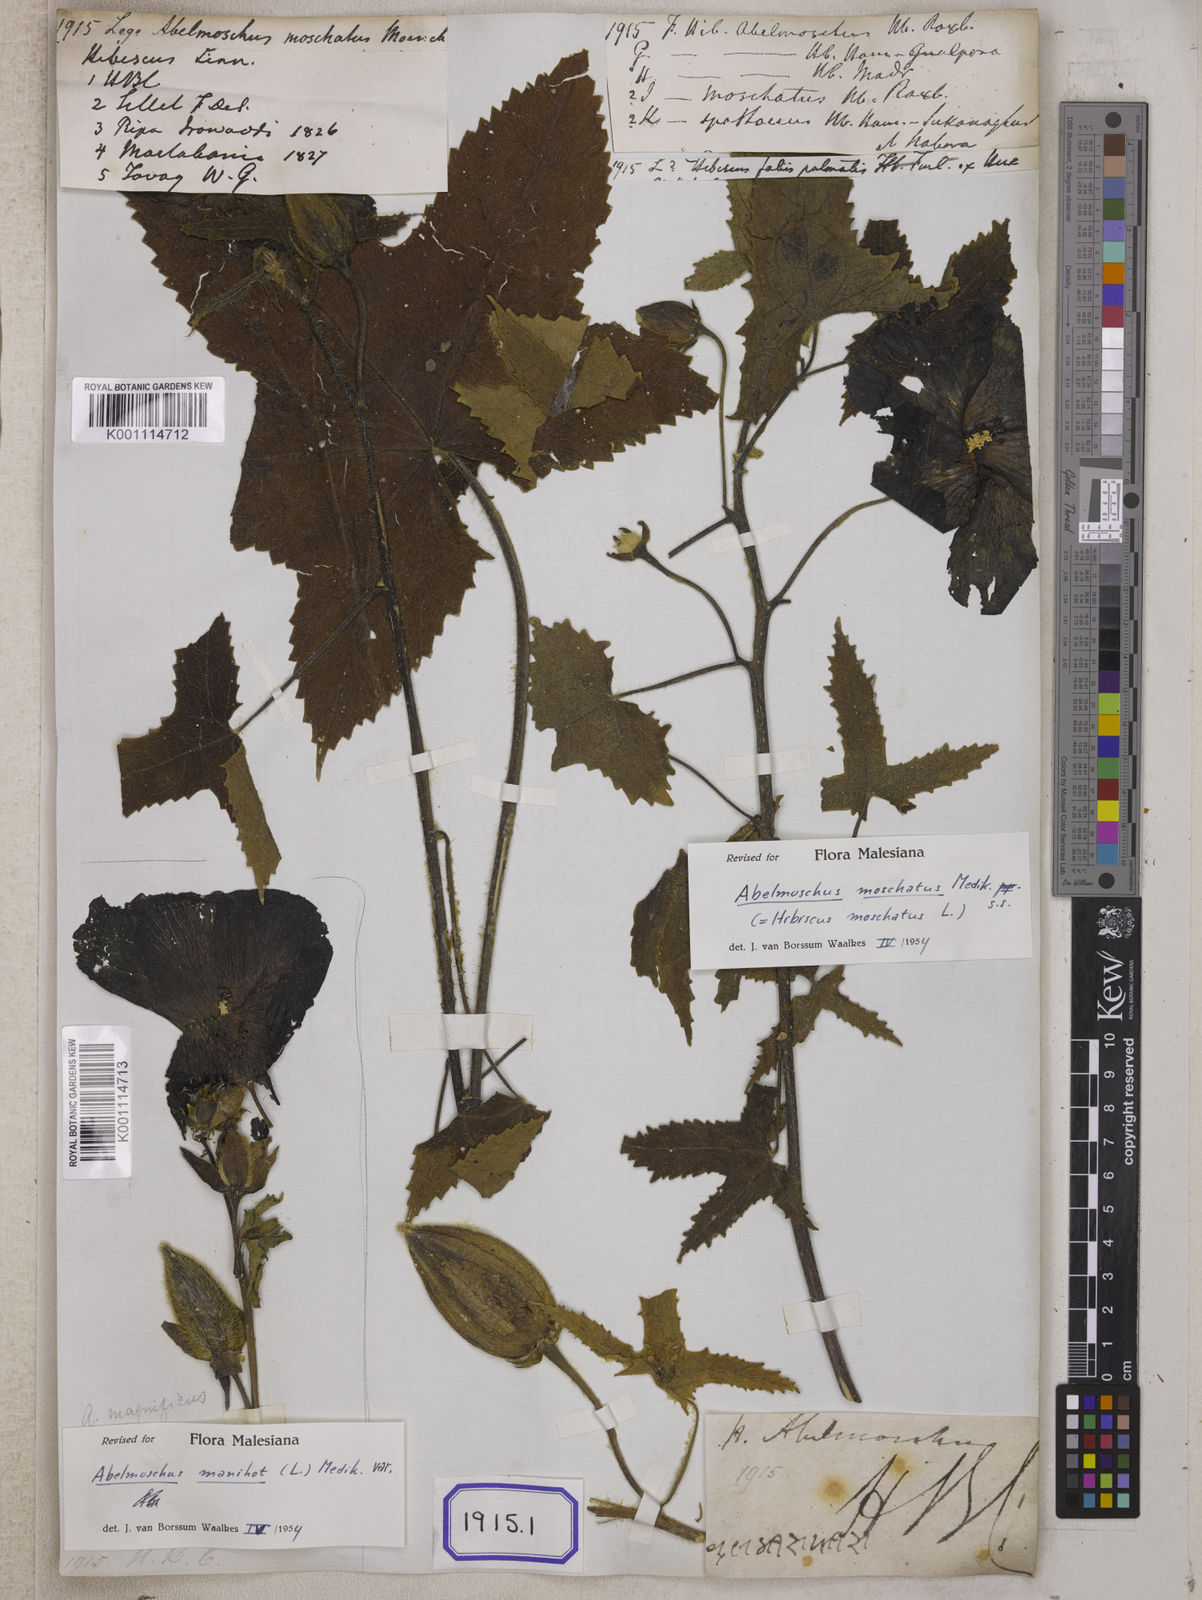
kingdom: Plantae
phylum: Tracheophyta
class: Magnoliopsida
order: Malvales
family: Malvaceae
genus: Bamia
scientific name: Bamia
